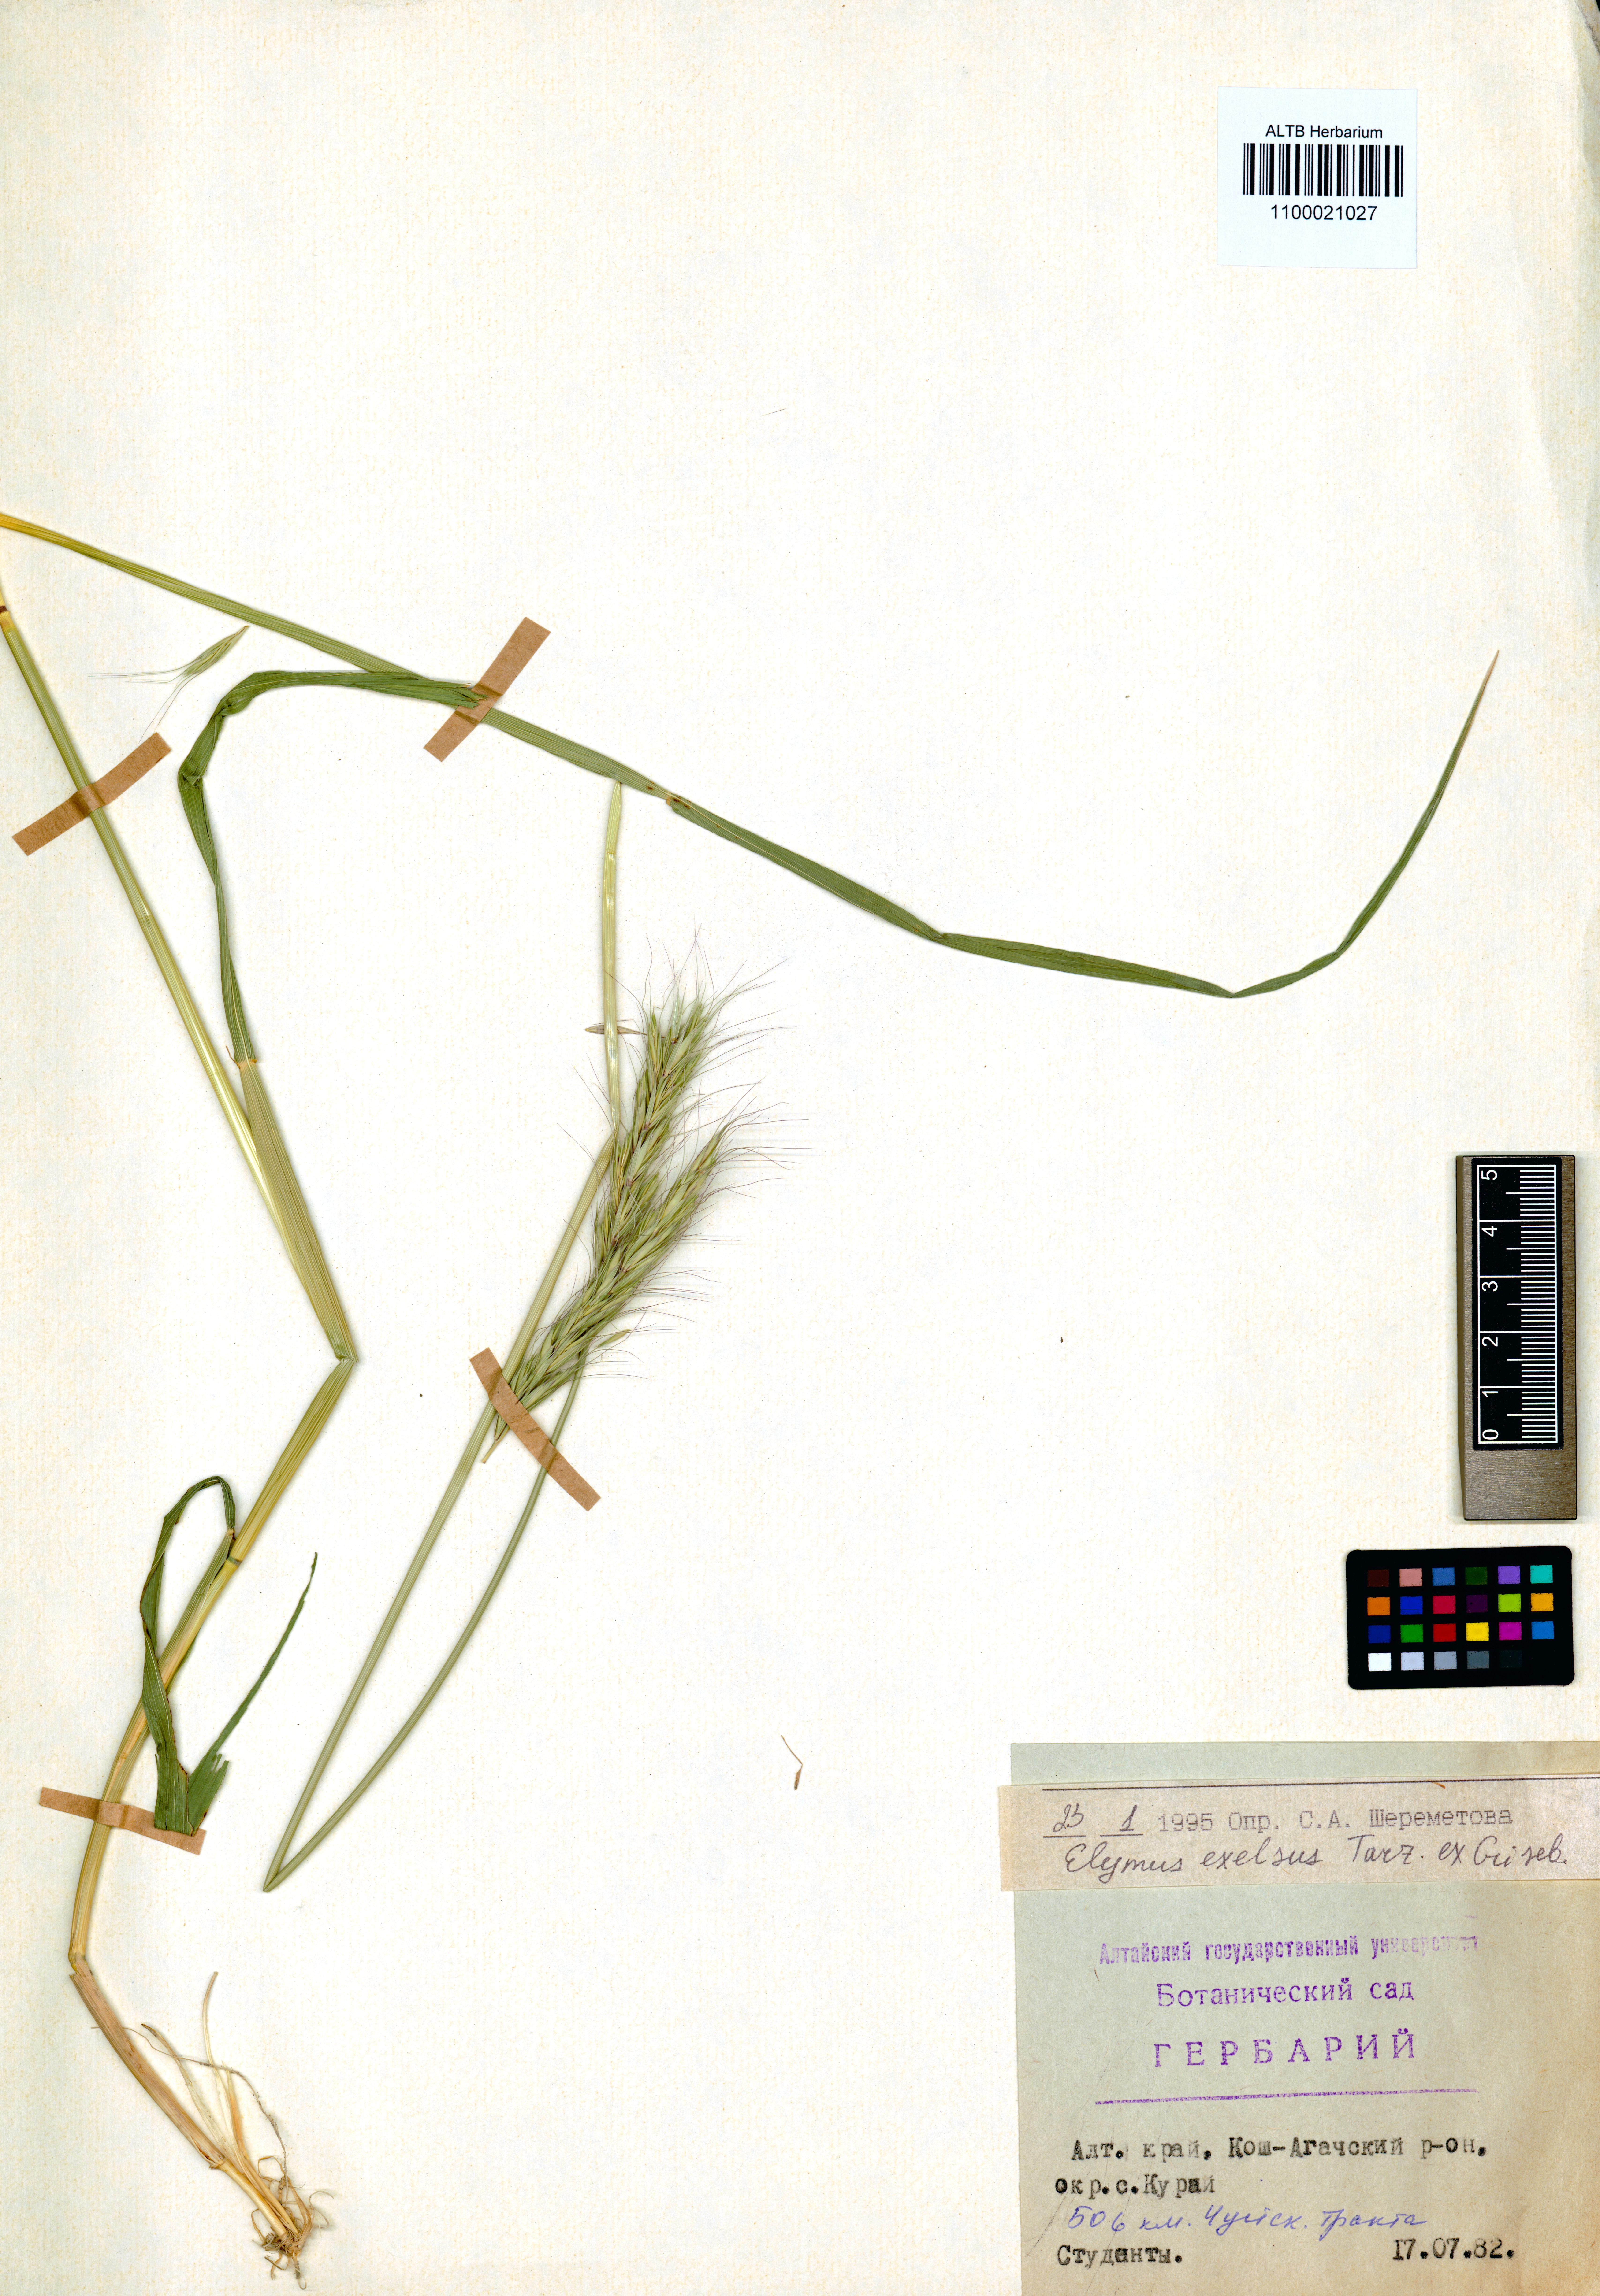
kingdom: Plantae
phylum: Tracheophyta
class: Liliopsida
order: Poales
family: Poaceae
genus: Elymus
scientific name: Elymus sibiricus
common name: Siberian wildrye
